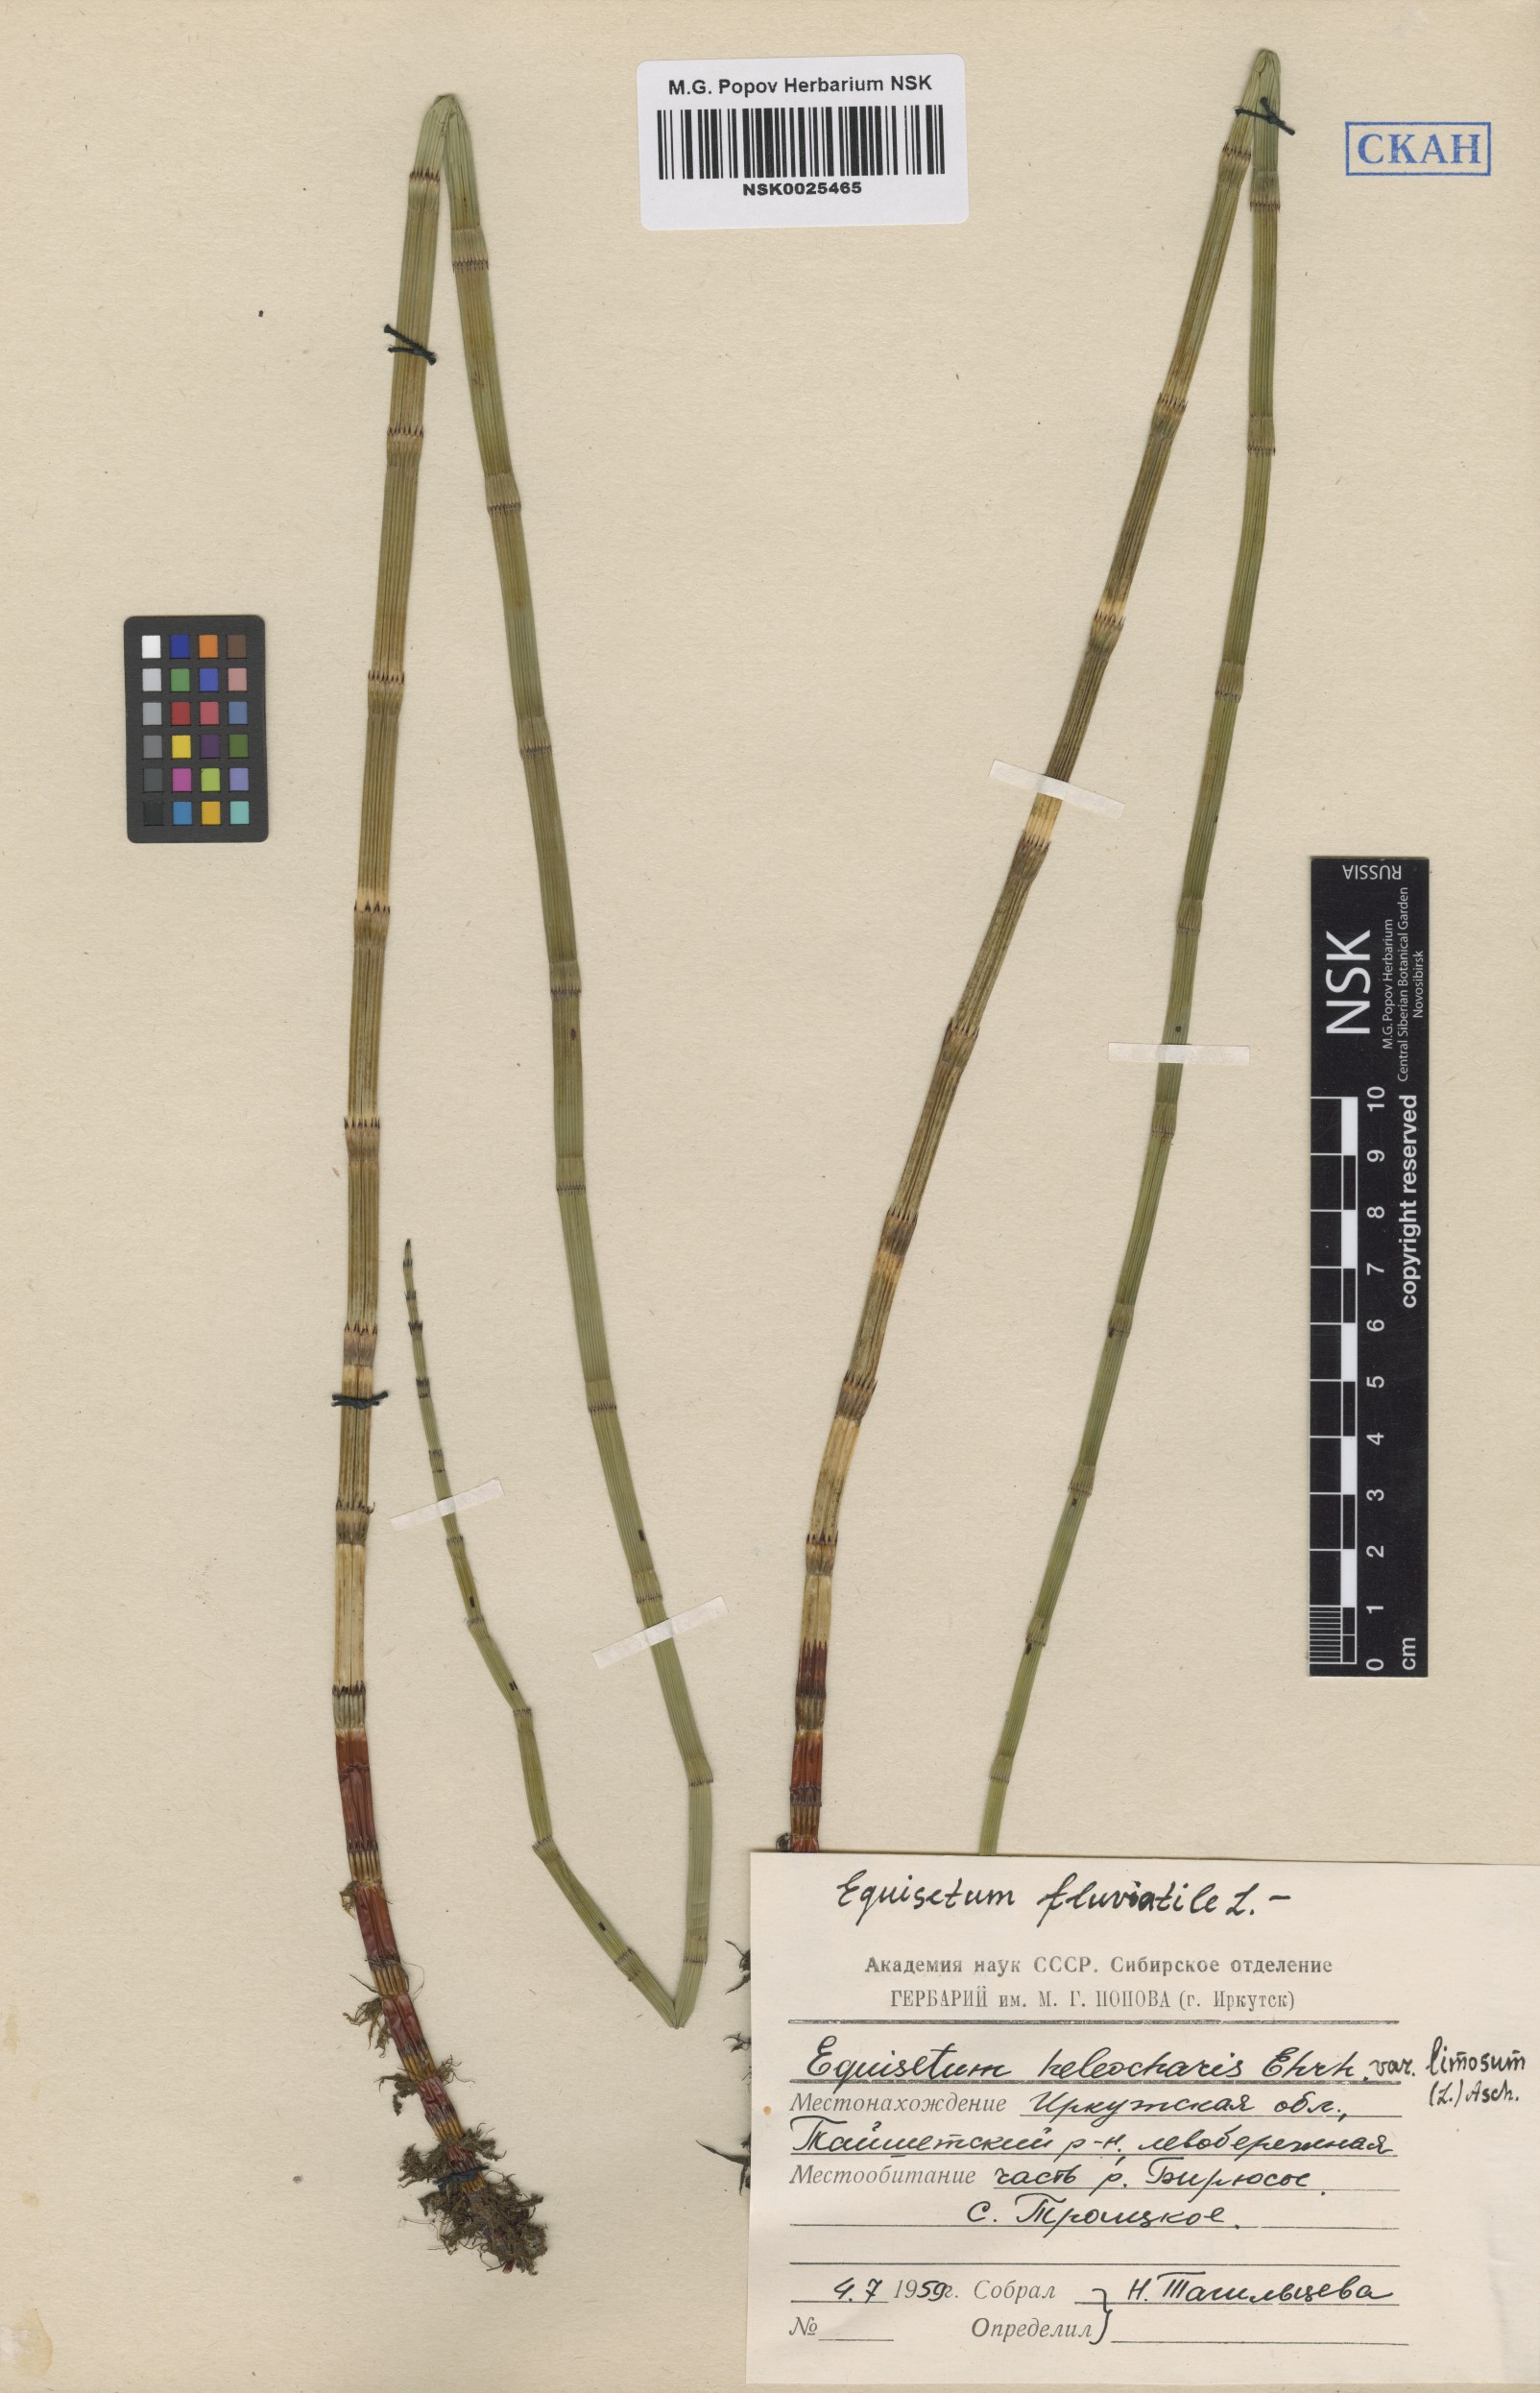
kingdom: Plantae
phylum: Tracheophyta
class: Polypodiopsida
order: Equisetales
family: Equisetaceae
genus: Equisetum
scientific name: Equisetum fluviatile
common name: Water horsetail
